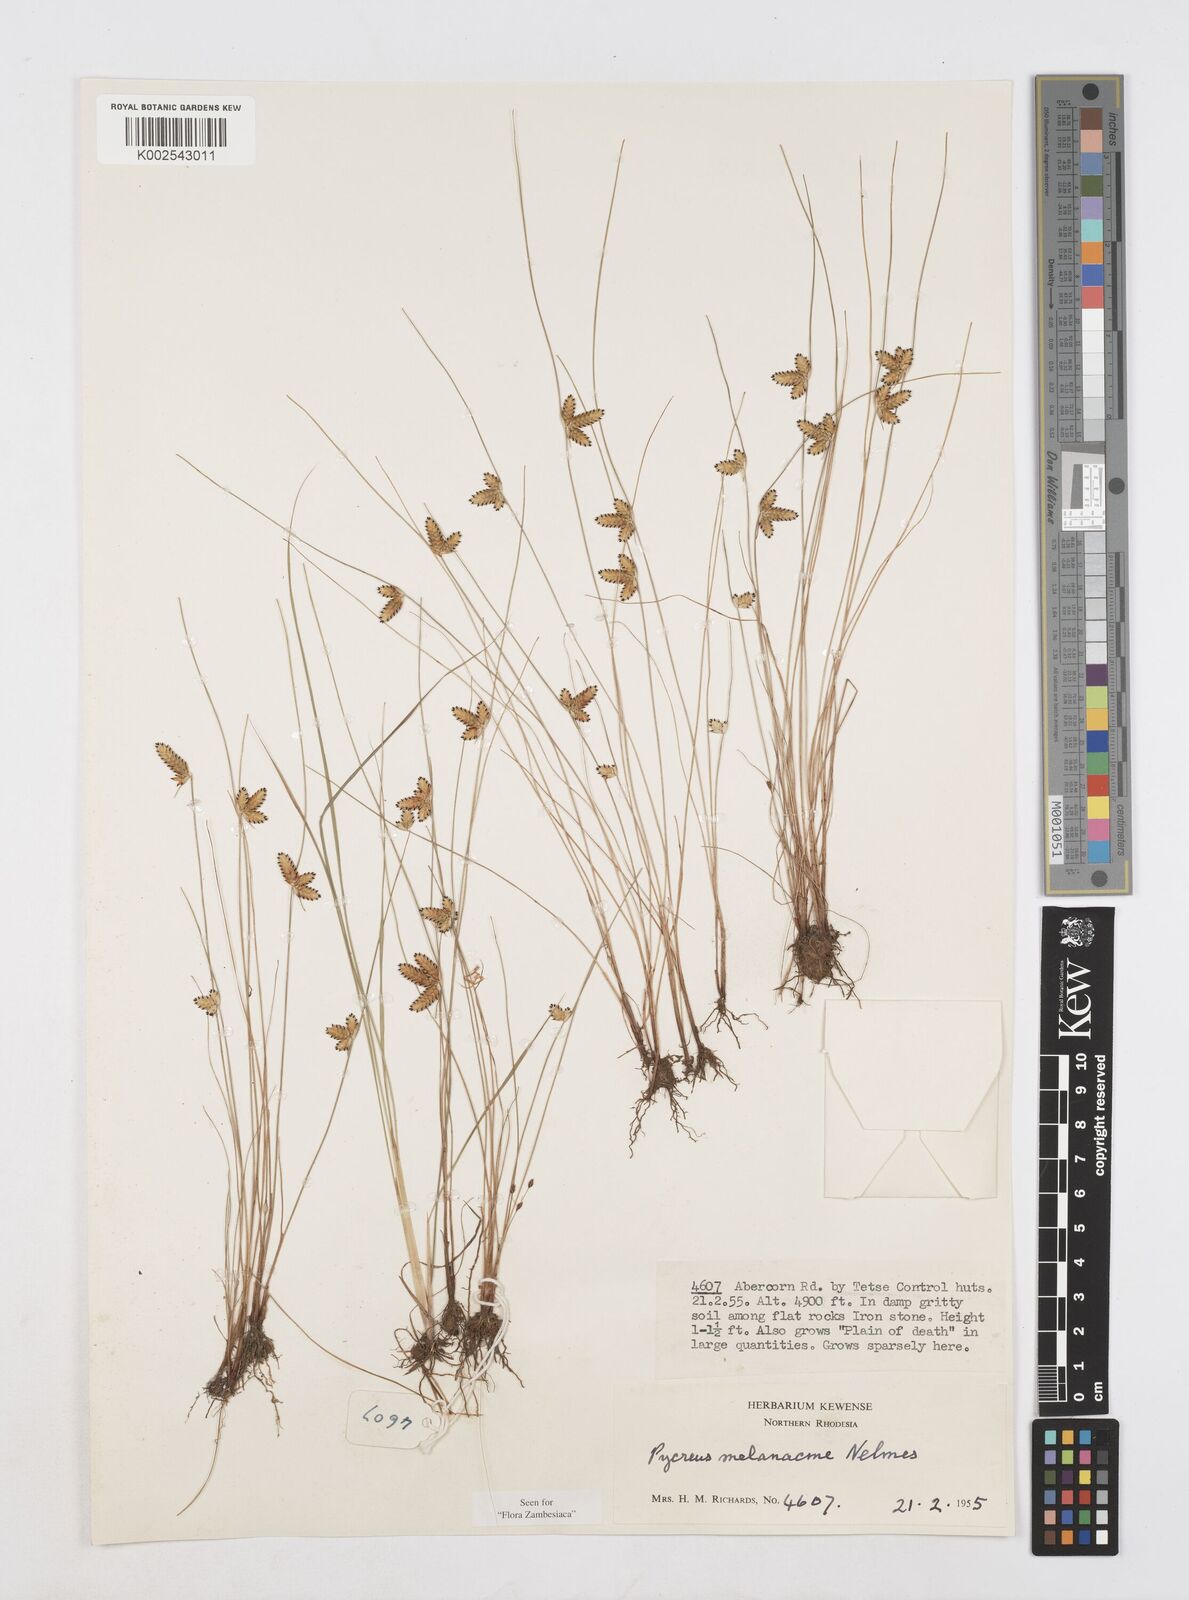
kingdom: Plantae
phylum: Tracheophyta
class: Liliopsida
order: Poales
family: Cyperaceae
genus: Cyperus
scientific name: Cyperus melanacme
